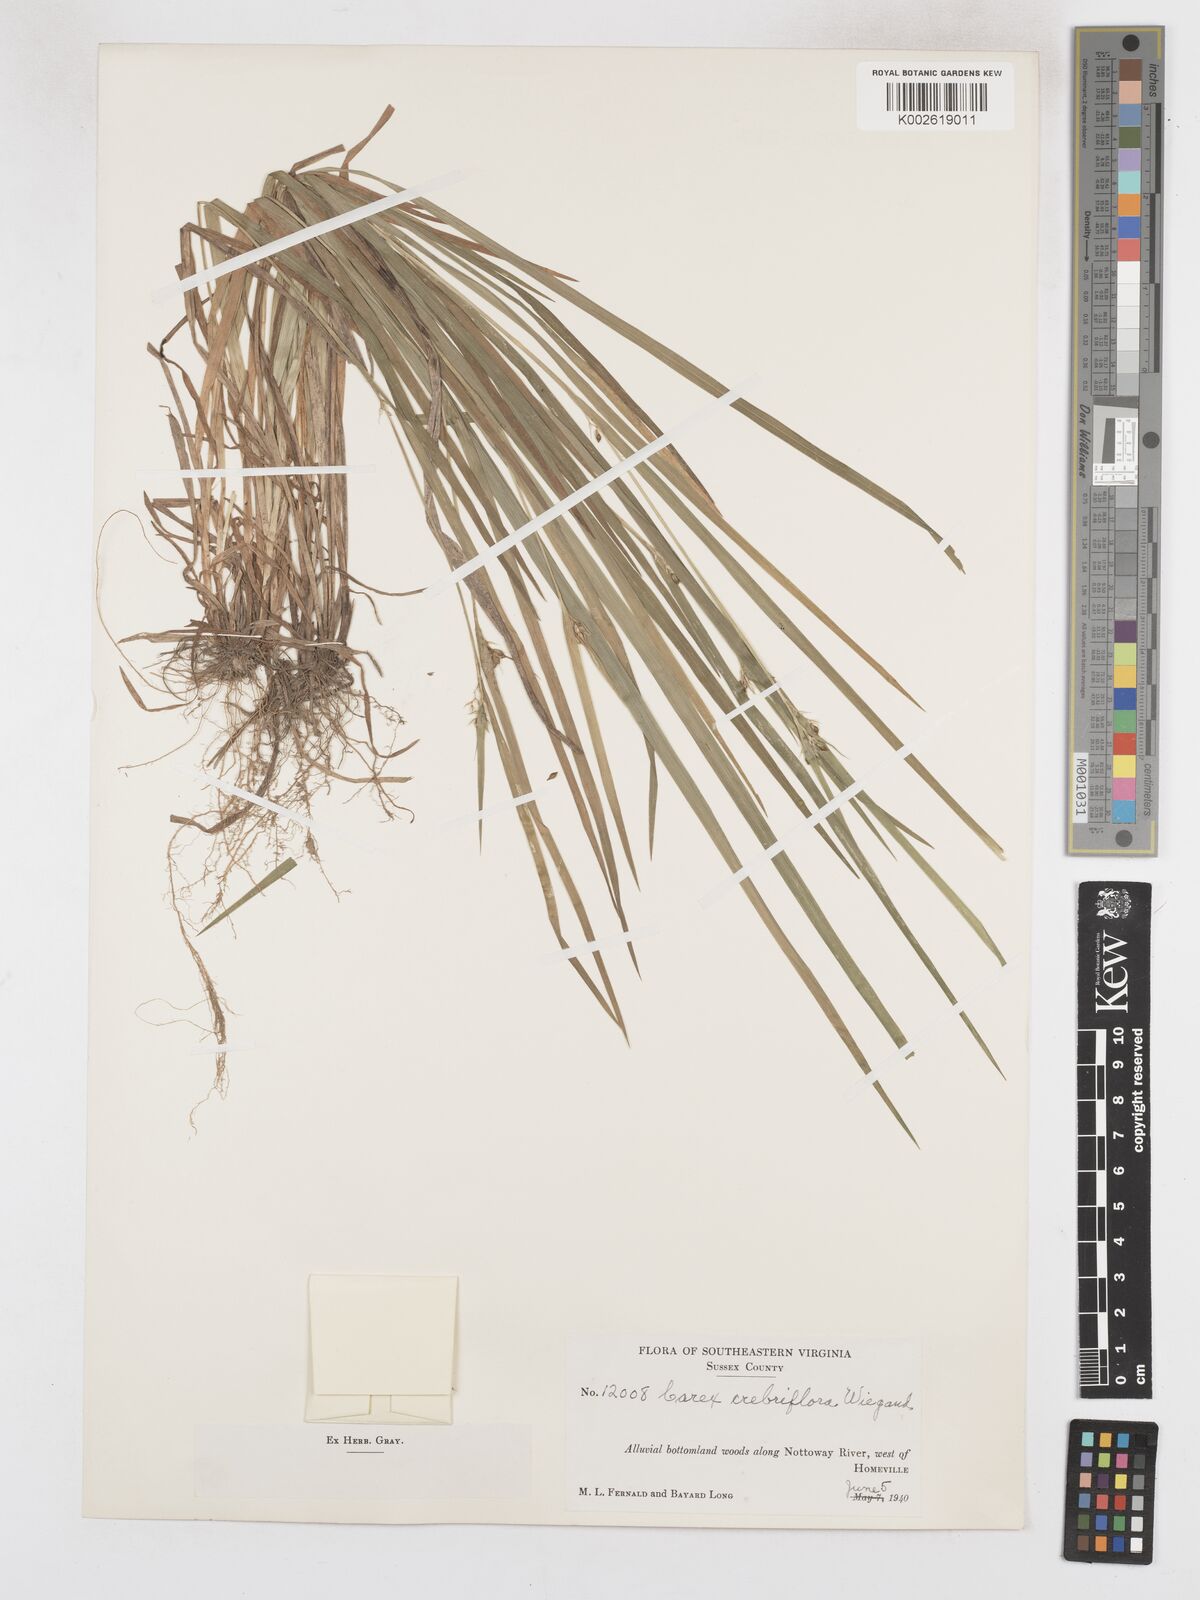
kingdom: Plantae
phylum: Tracheophyta
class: Liliopsida
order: Poales
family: Cyperaceae
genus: Carex
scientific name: Carex crebriflora
